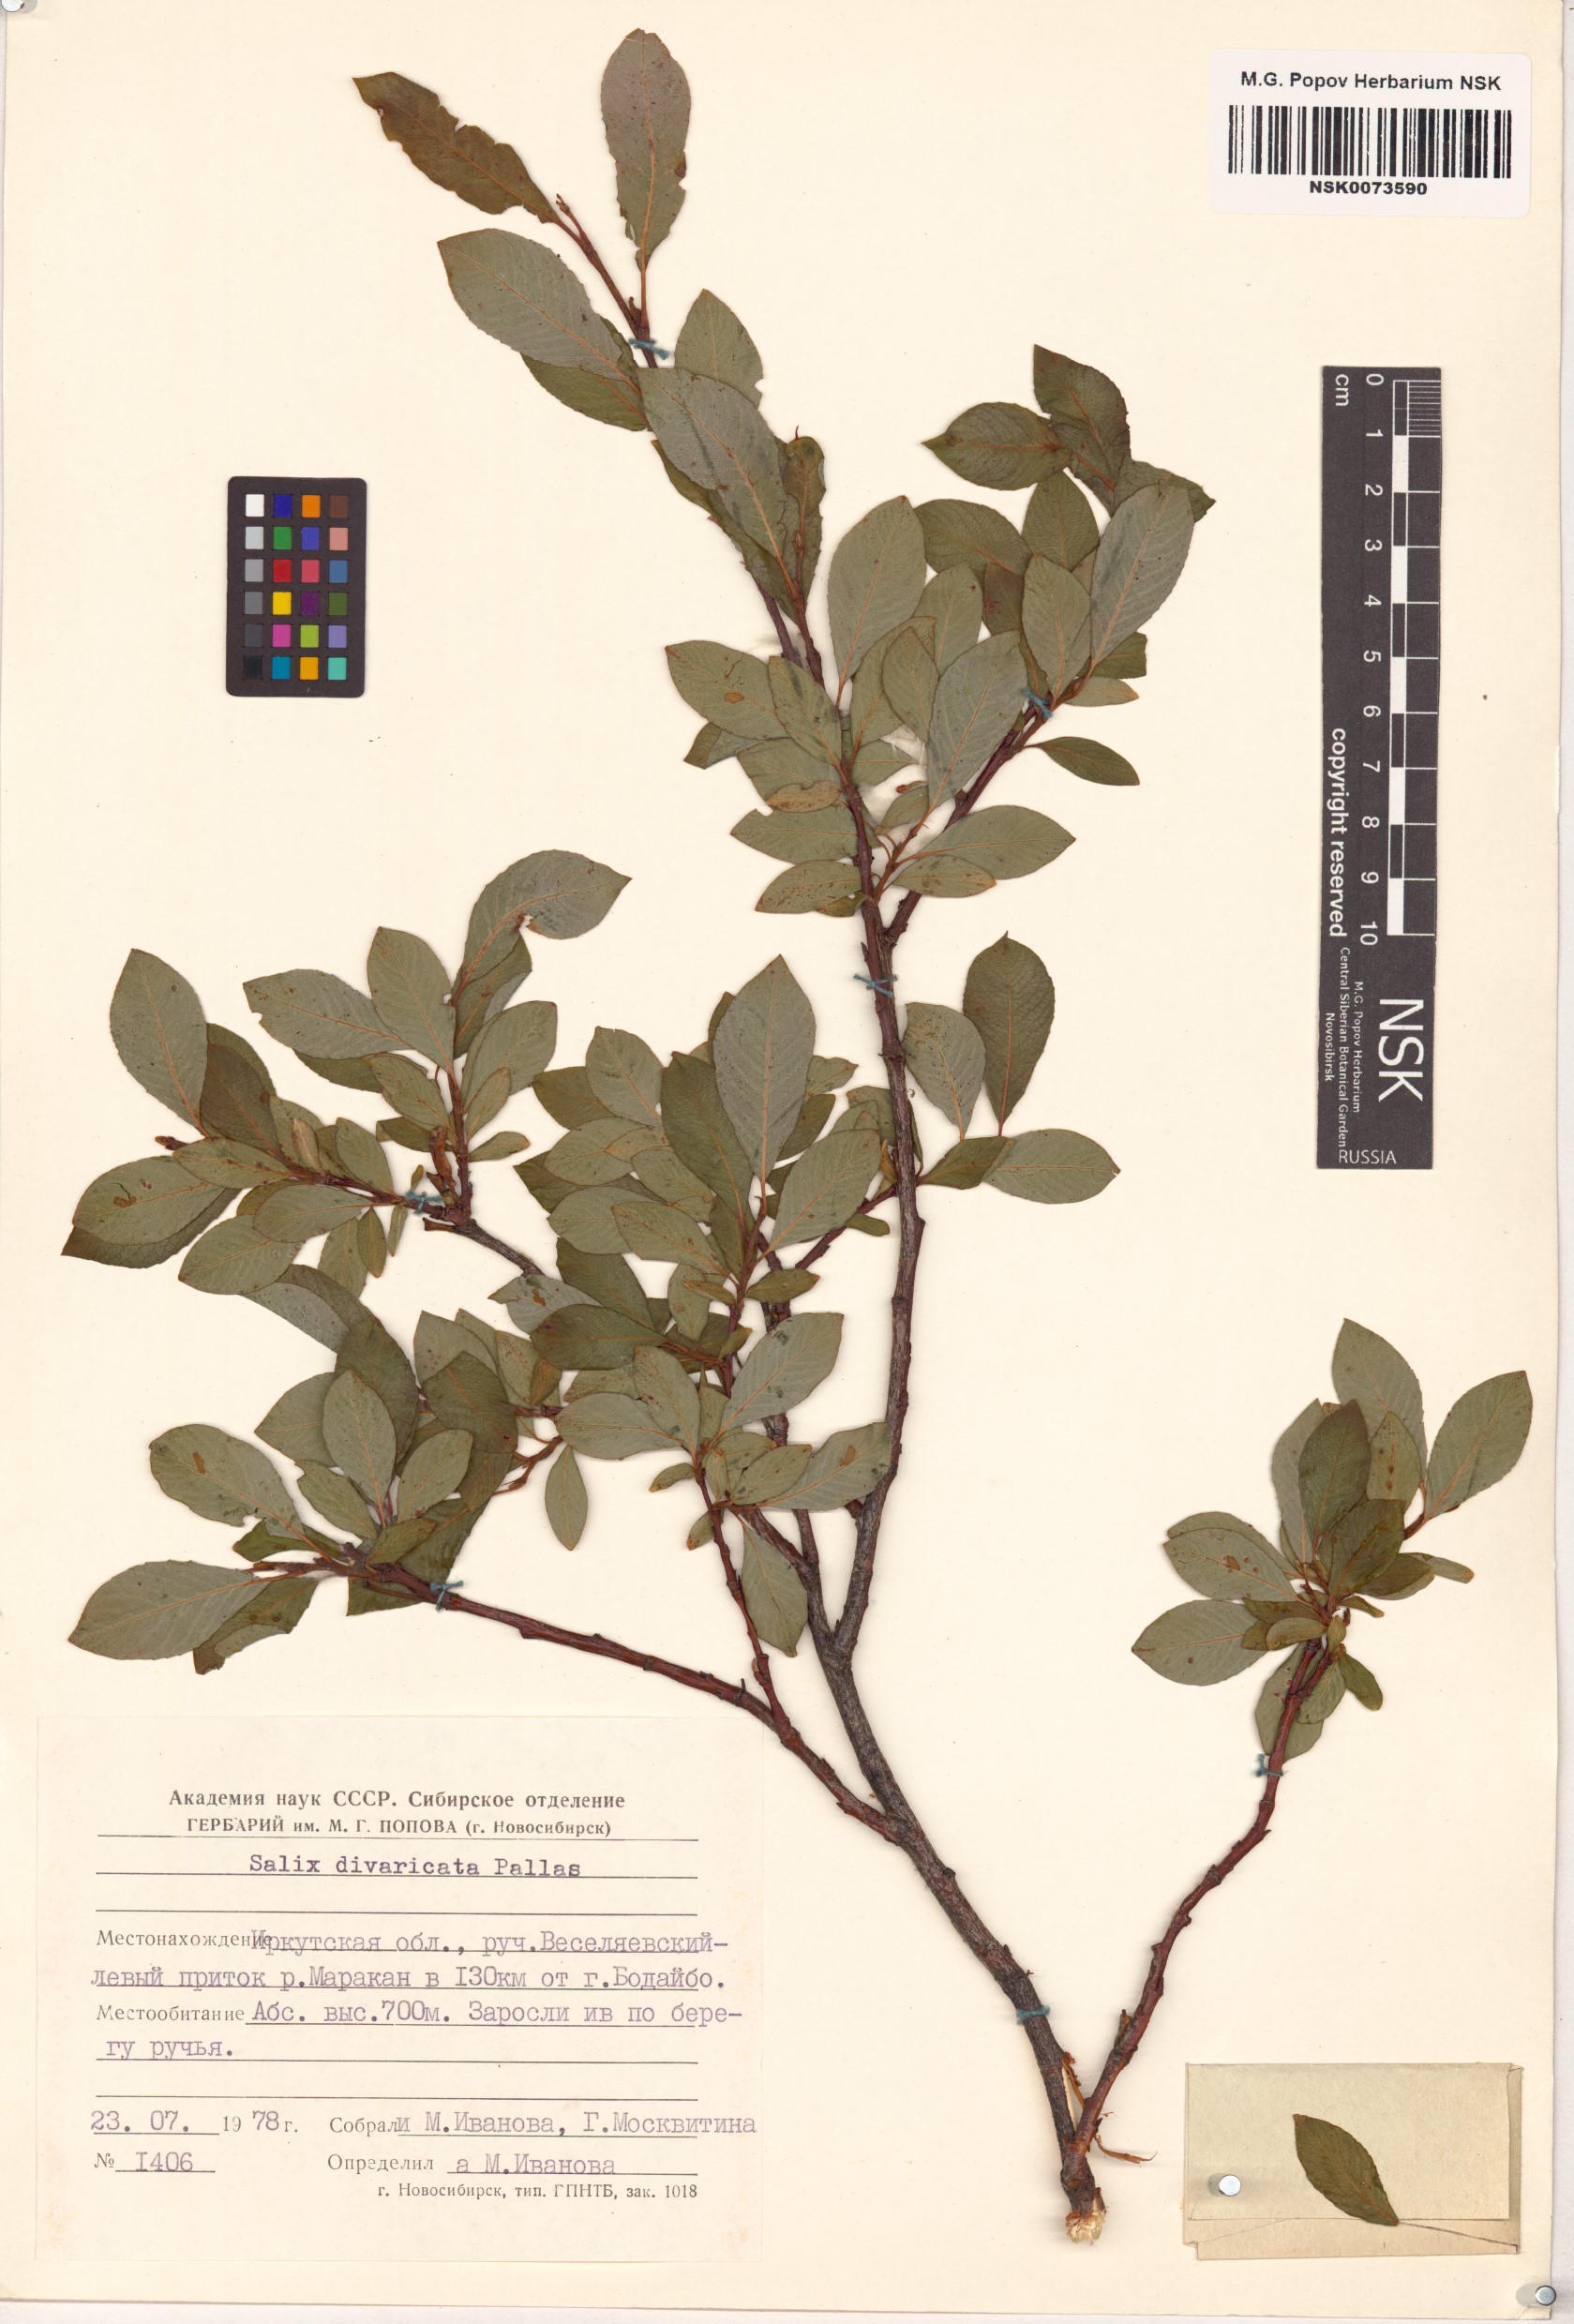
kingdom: Plantae
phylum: Tracheophyta
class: Magnoliopsida
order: Malpighiales
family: Salicaceae
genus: Salix
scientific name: Salix divaricata
